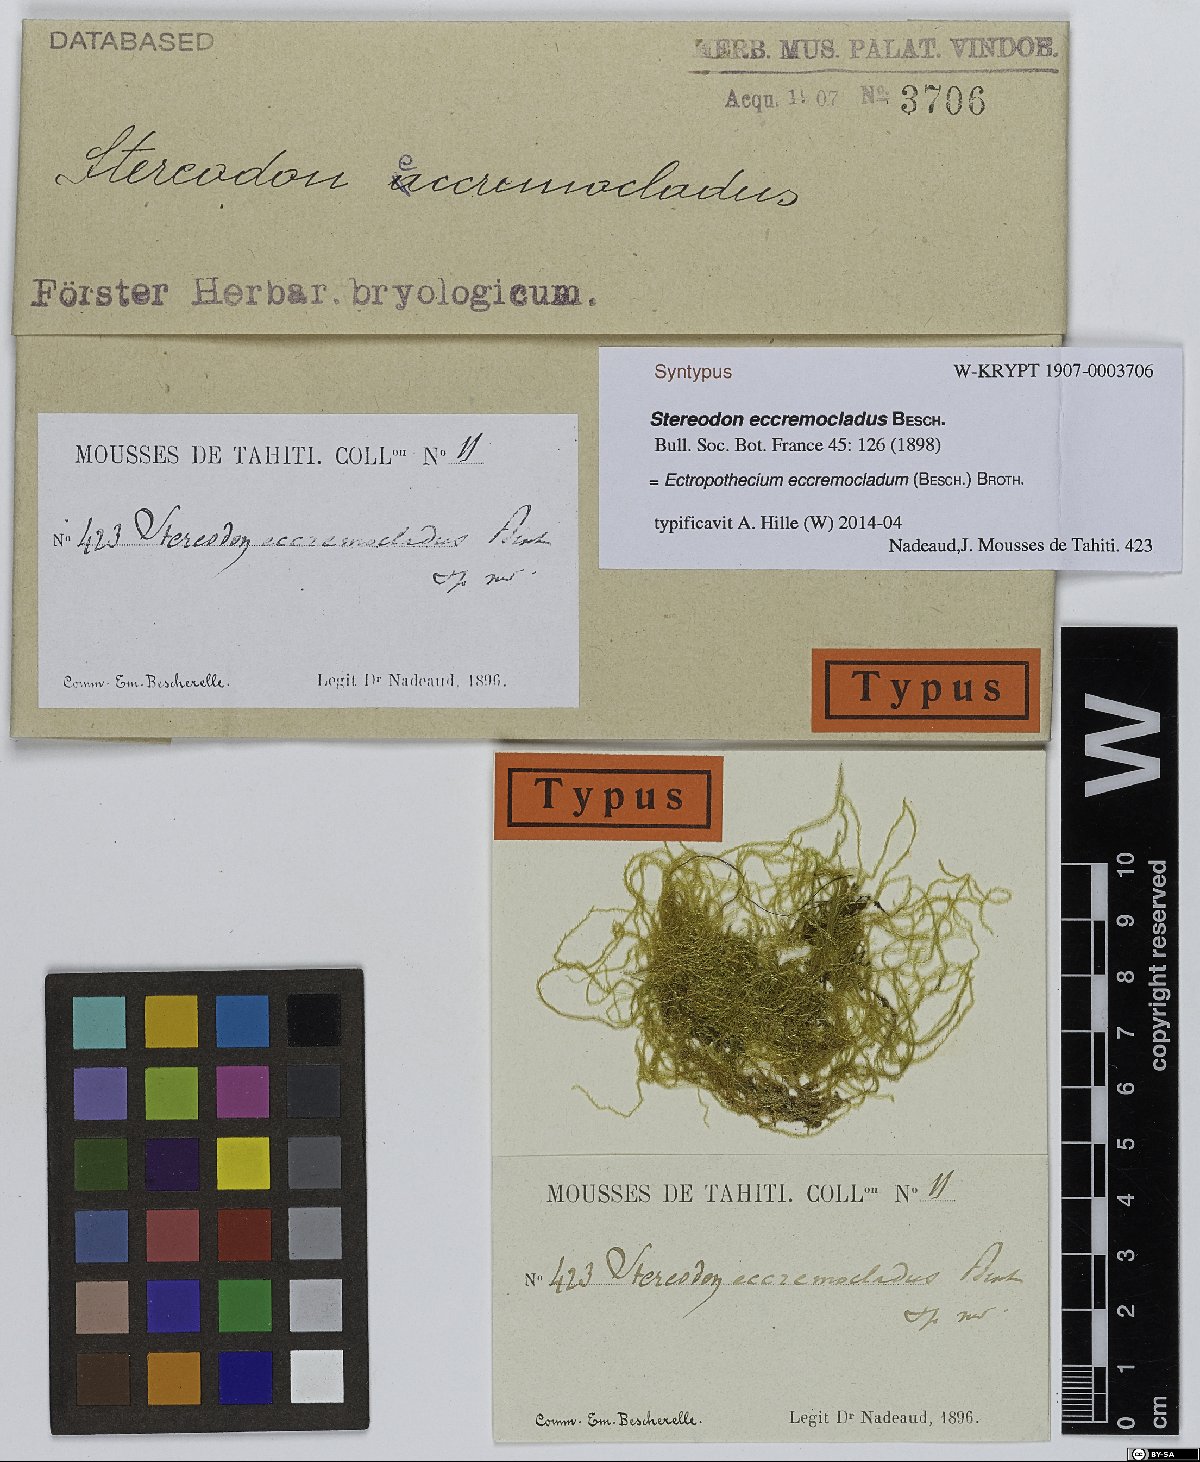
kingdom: Plantae
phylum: Bryophyta
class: Bryopsida
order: Hypnales
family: Hypnaceae
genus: Ectropothecium
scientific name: Ectropothecium eccremocladum
